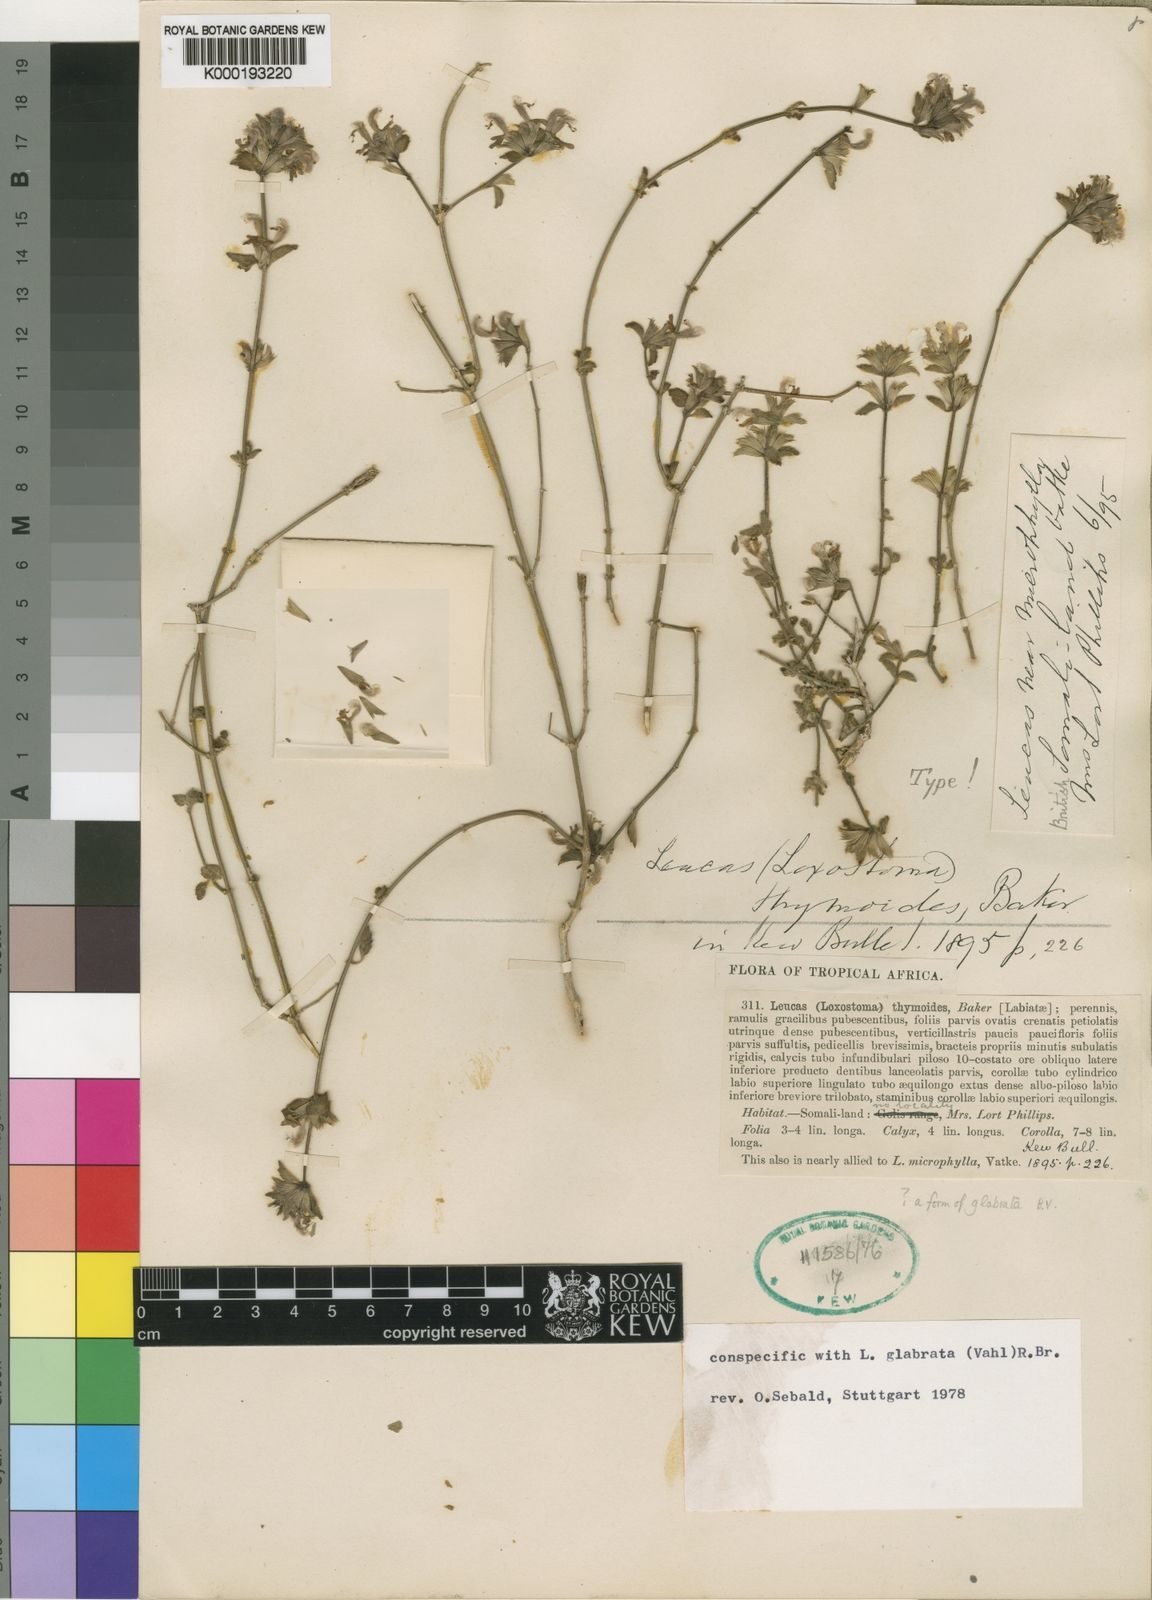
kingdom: Plantae
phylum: Tracheophyta
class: Magnoliopsida
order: Lamiales
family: Lamiaceae
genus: Leucas
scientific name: Leucas glabrata
